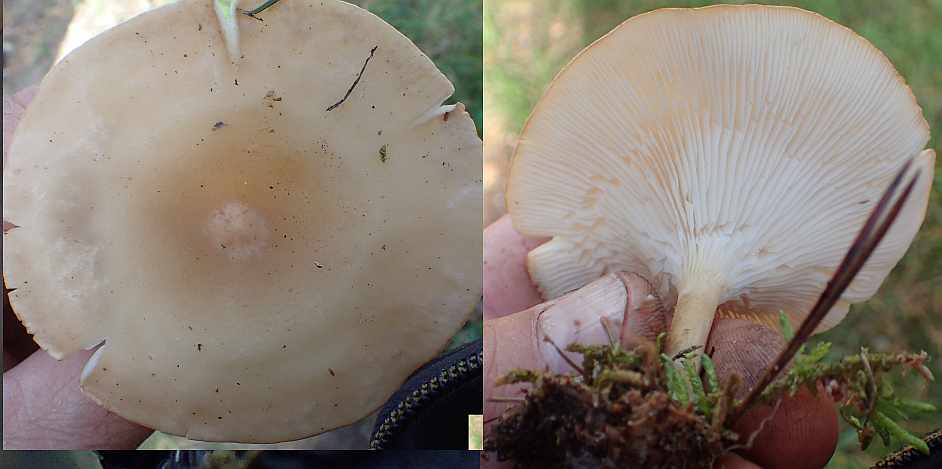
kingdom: Fungi
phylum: Basidiomycota
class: Agaricomycetes
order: Agaricales
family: Tricholomataceae
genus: Infundibulicybe
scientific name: Infundibulicybe gibba
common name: almindelig tragthat
